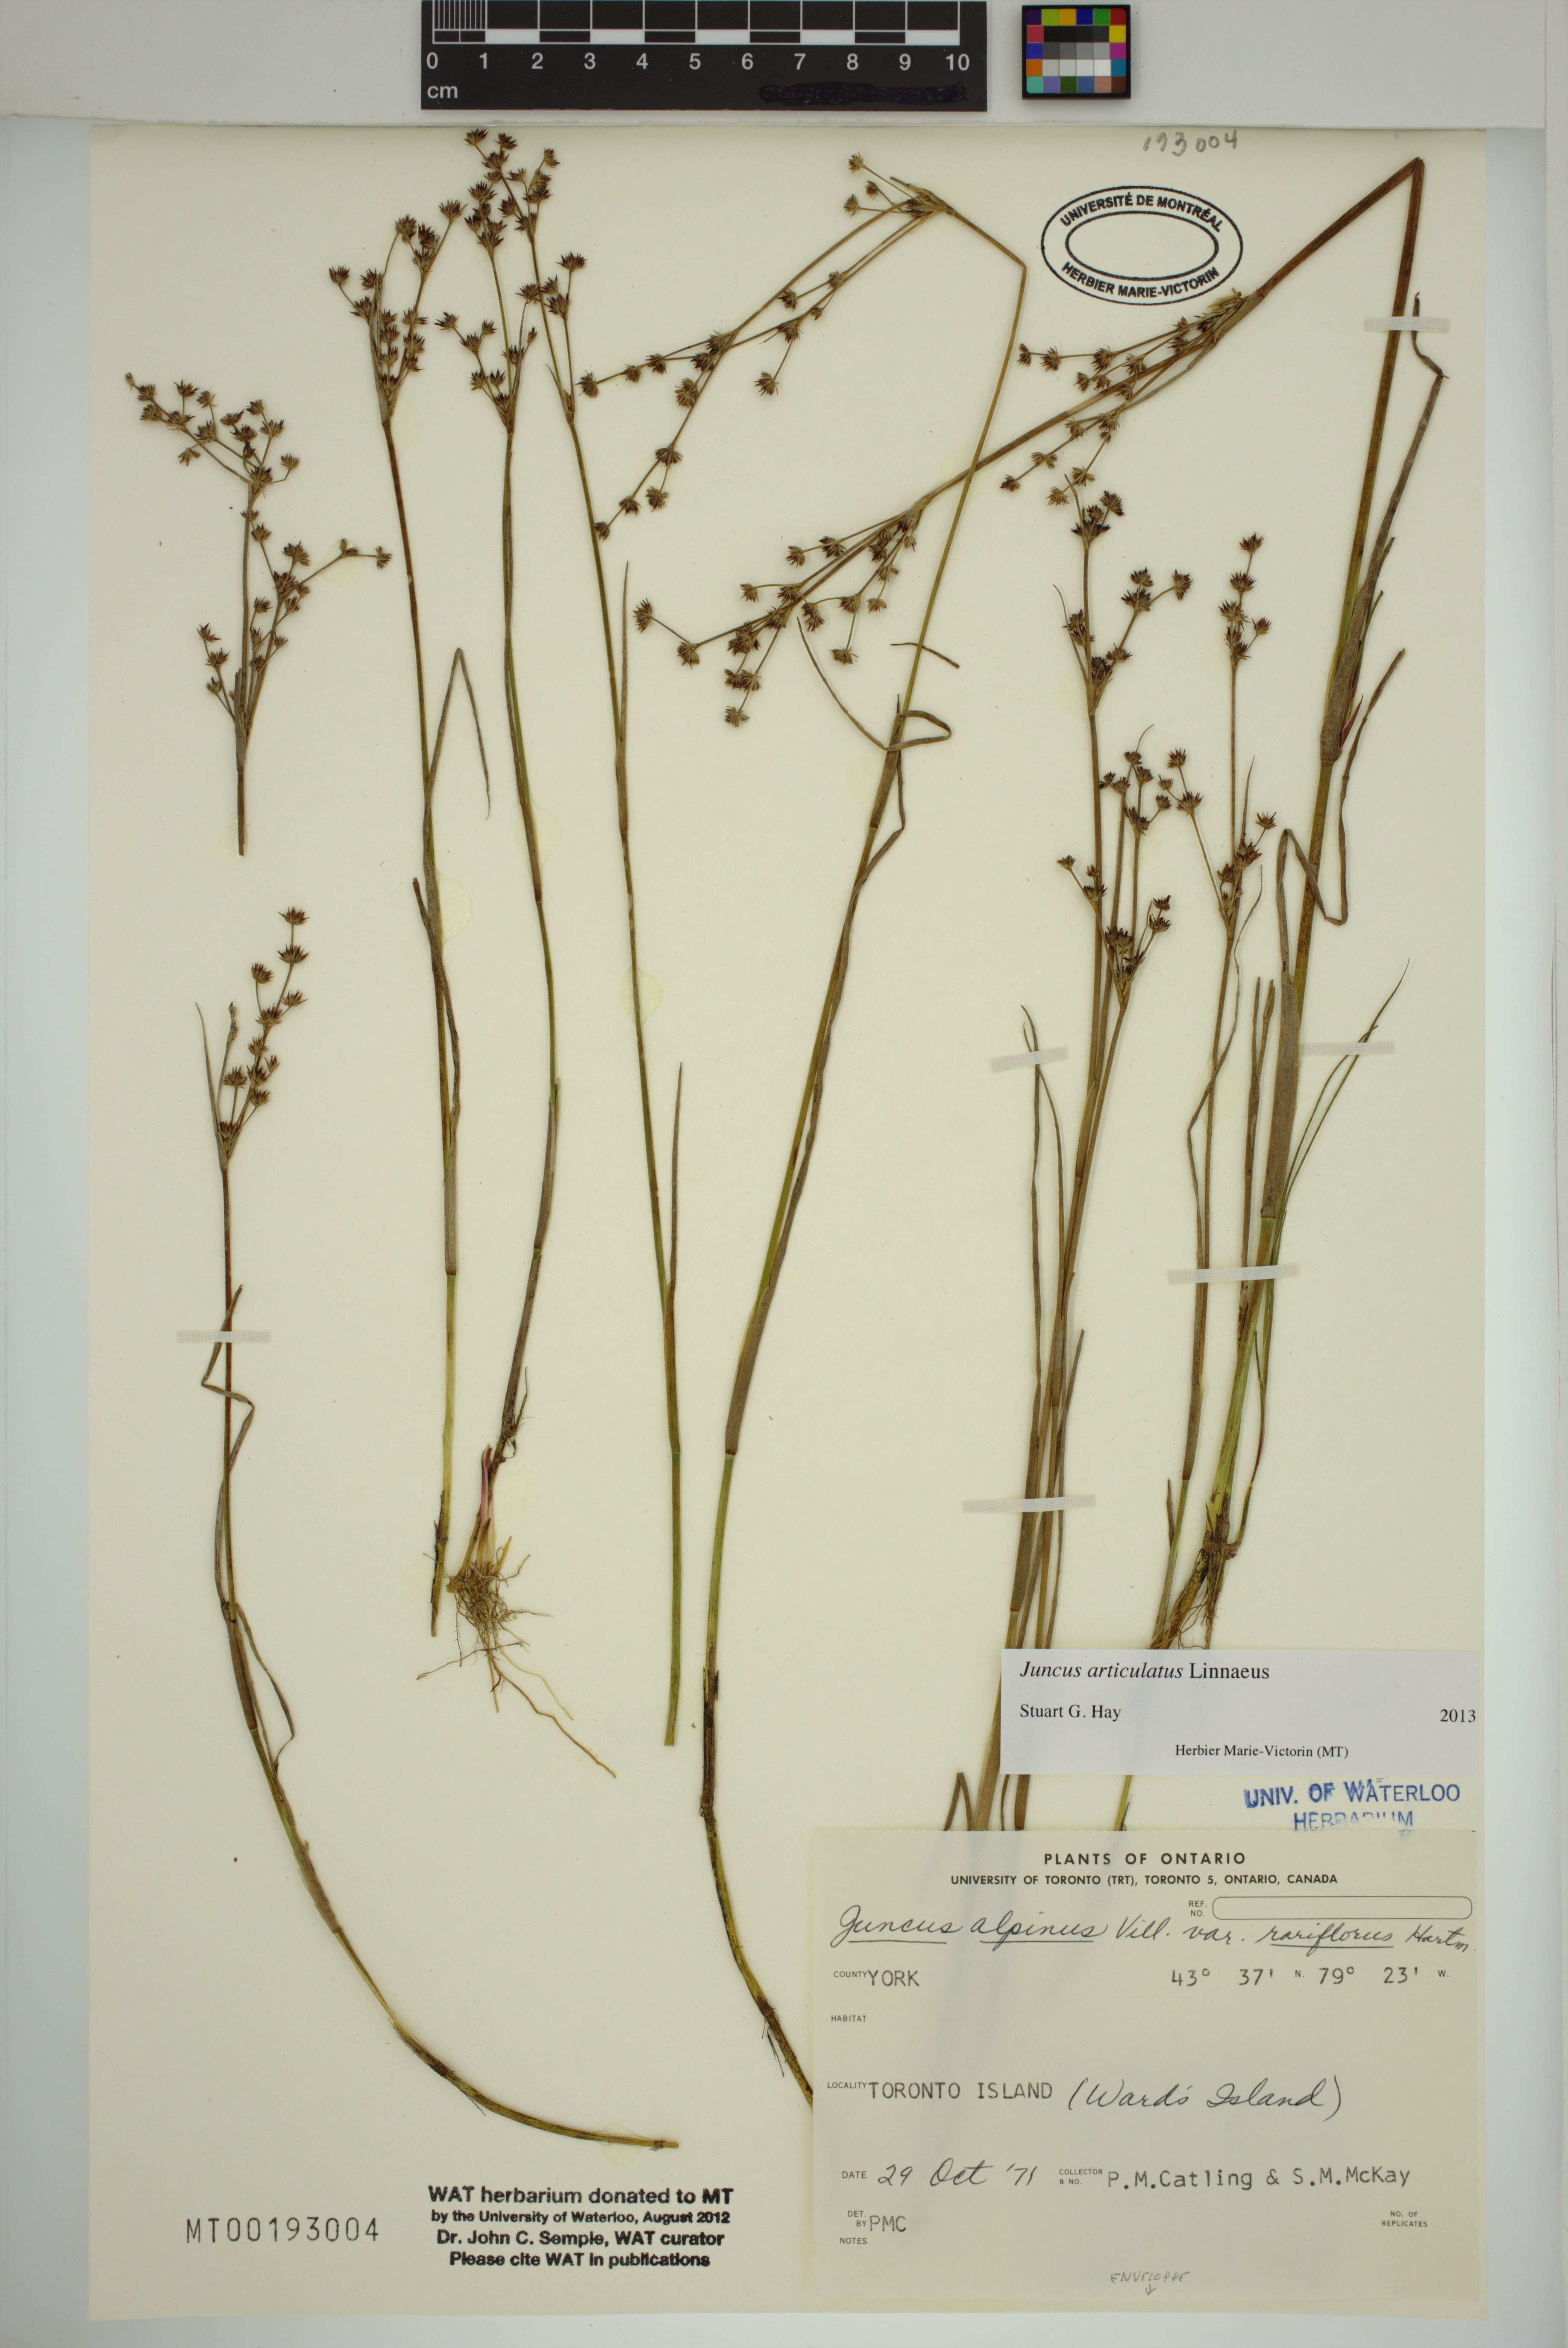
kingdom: Plantae
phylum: Tracheophyta
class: Liliopsida
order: Poales
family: Juncaceae
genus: Juncus
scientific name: Juncus articulatus
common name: Jointed rush
